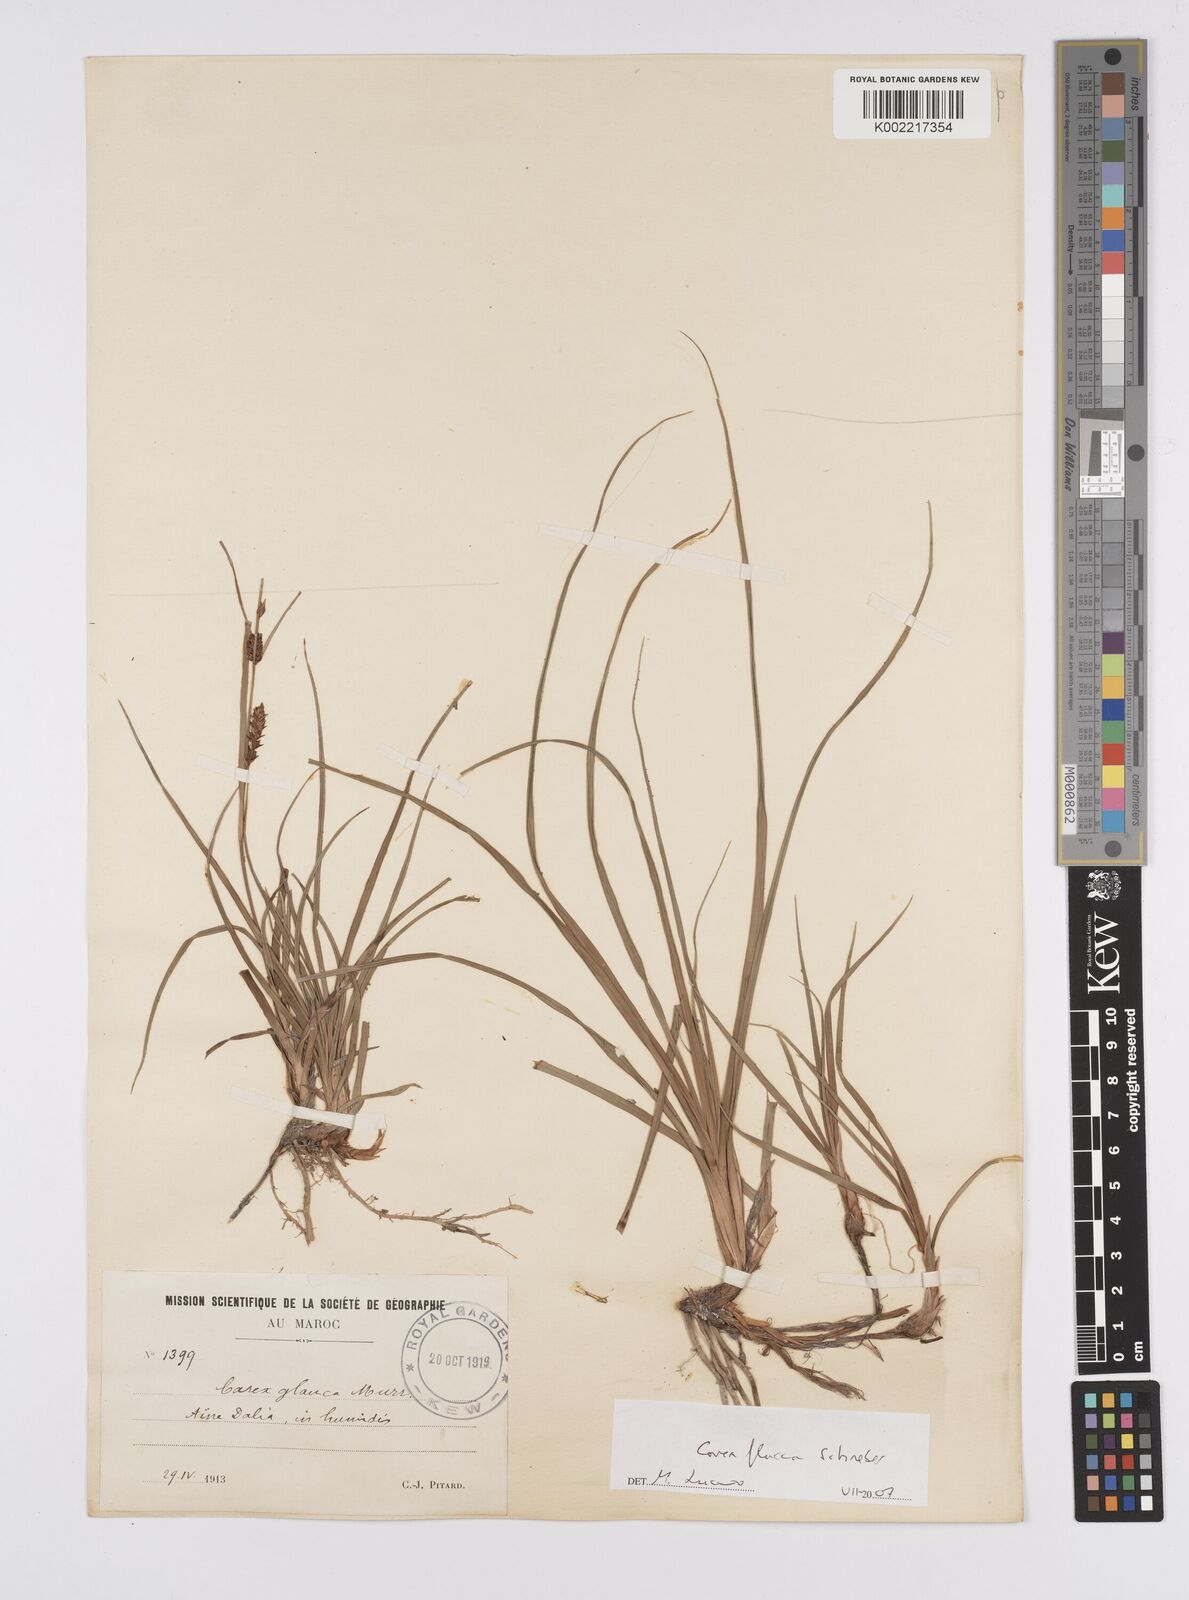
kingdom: Plantae
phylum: Tracheophyta
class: Liliopsida
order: Poales
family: Cyperaceae
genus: Carex
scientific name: Carex flacca
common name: Glaucous sedge
